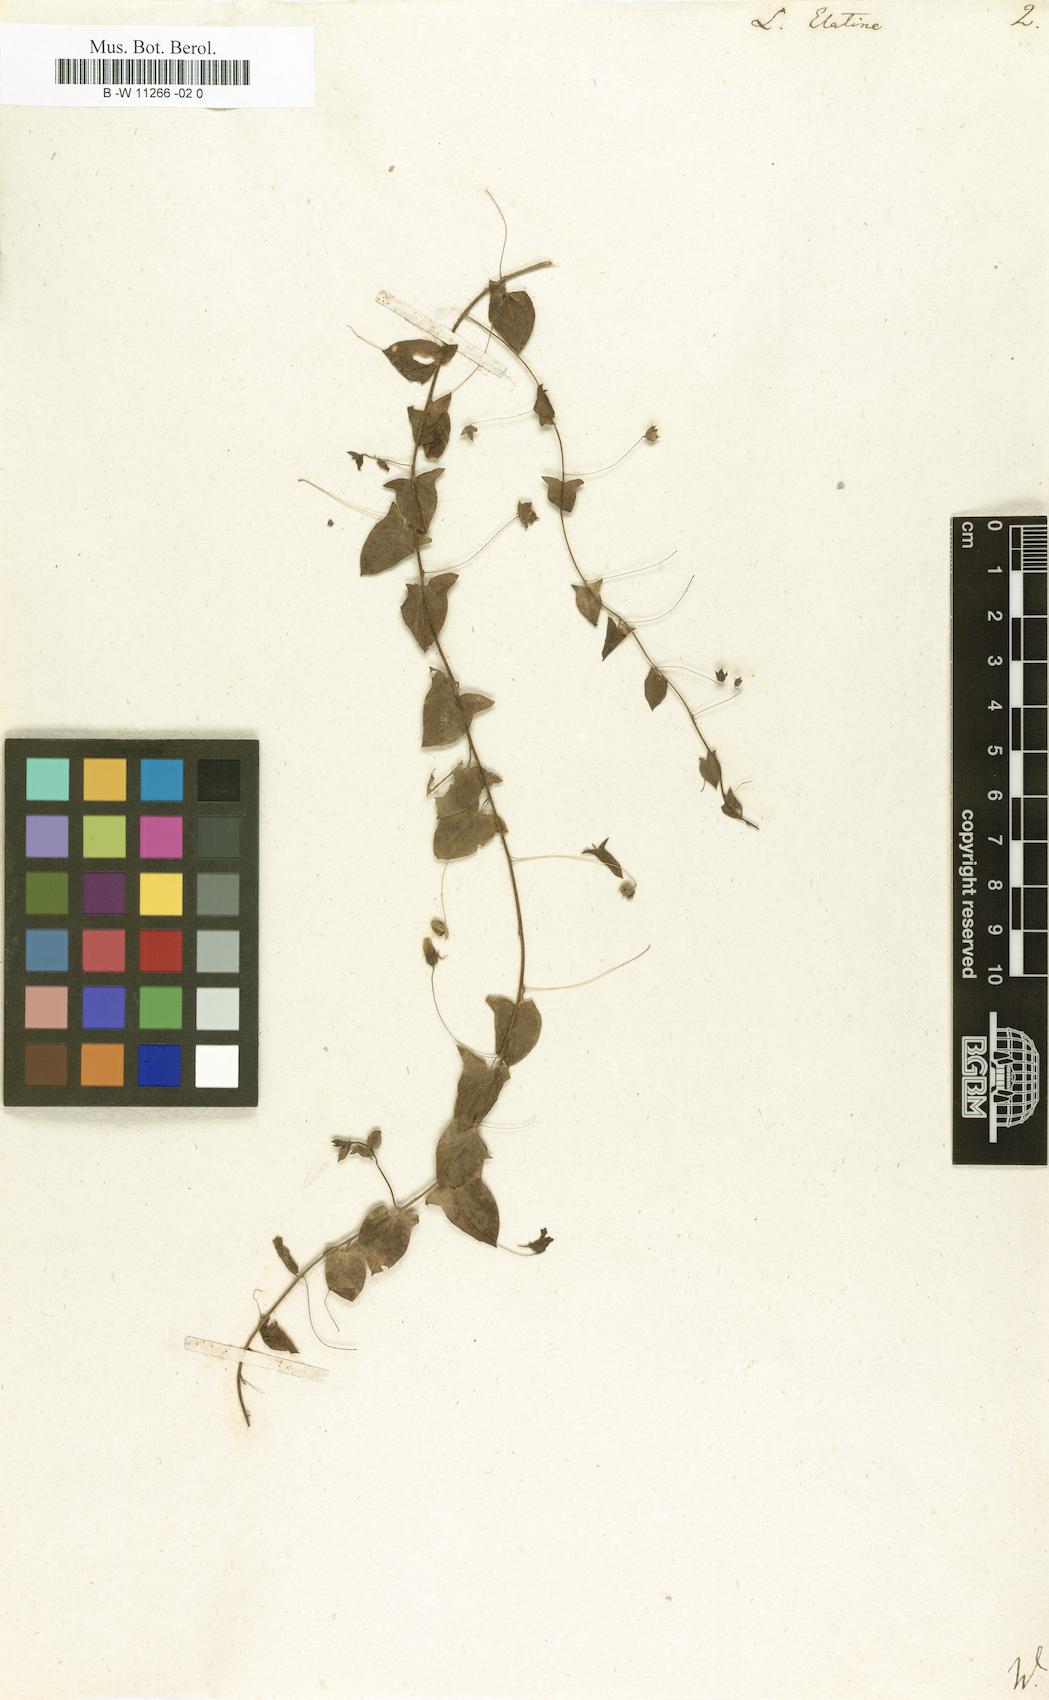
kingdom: Plantae
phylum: Tracheophyta
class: Magnoliopsida
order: Lamiales
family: Plantaginaceae
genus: Linaria
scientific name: Linaria heterophylla
